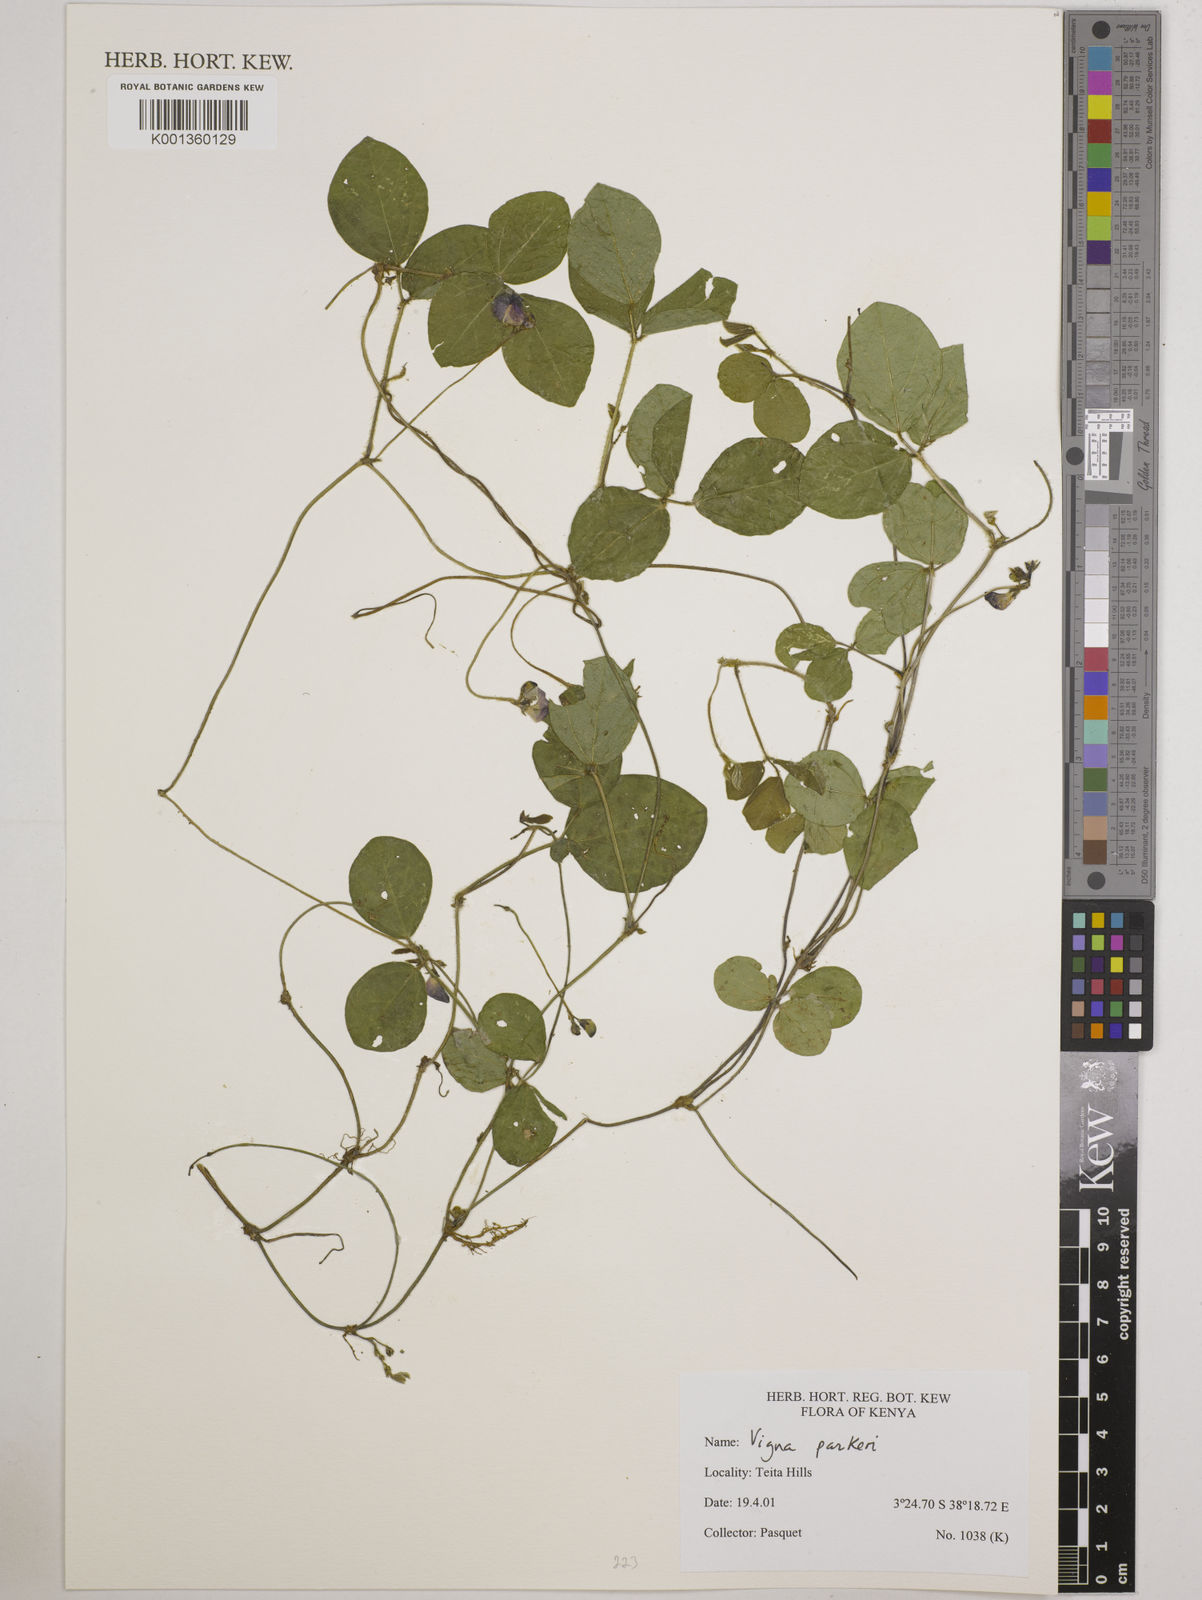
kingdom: Plantae
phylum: Tracheophyta
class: Magnoliopsida
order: Fabales
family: Fabaceae
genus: Vigna
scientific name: Vigna parkeri
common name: Creeping vigna
